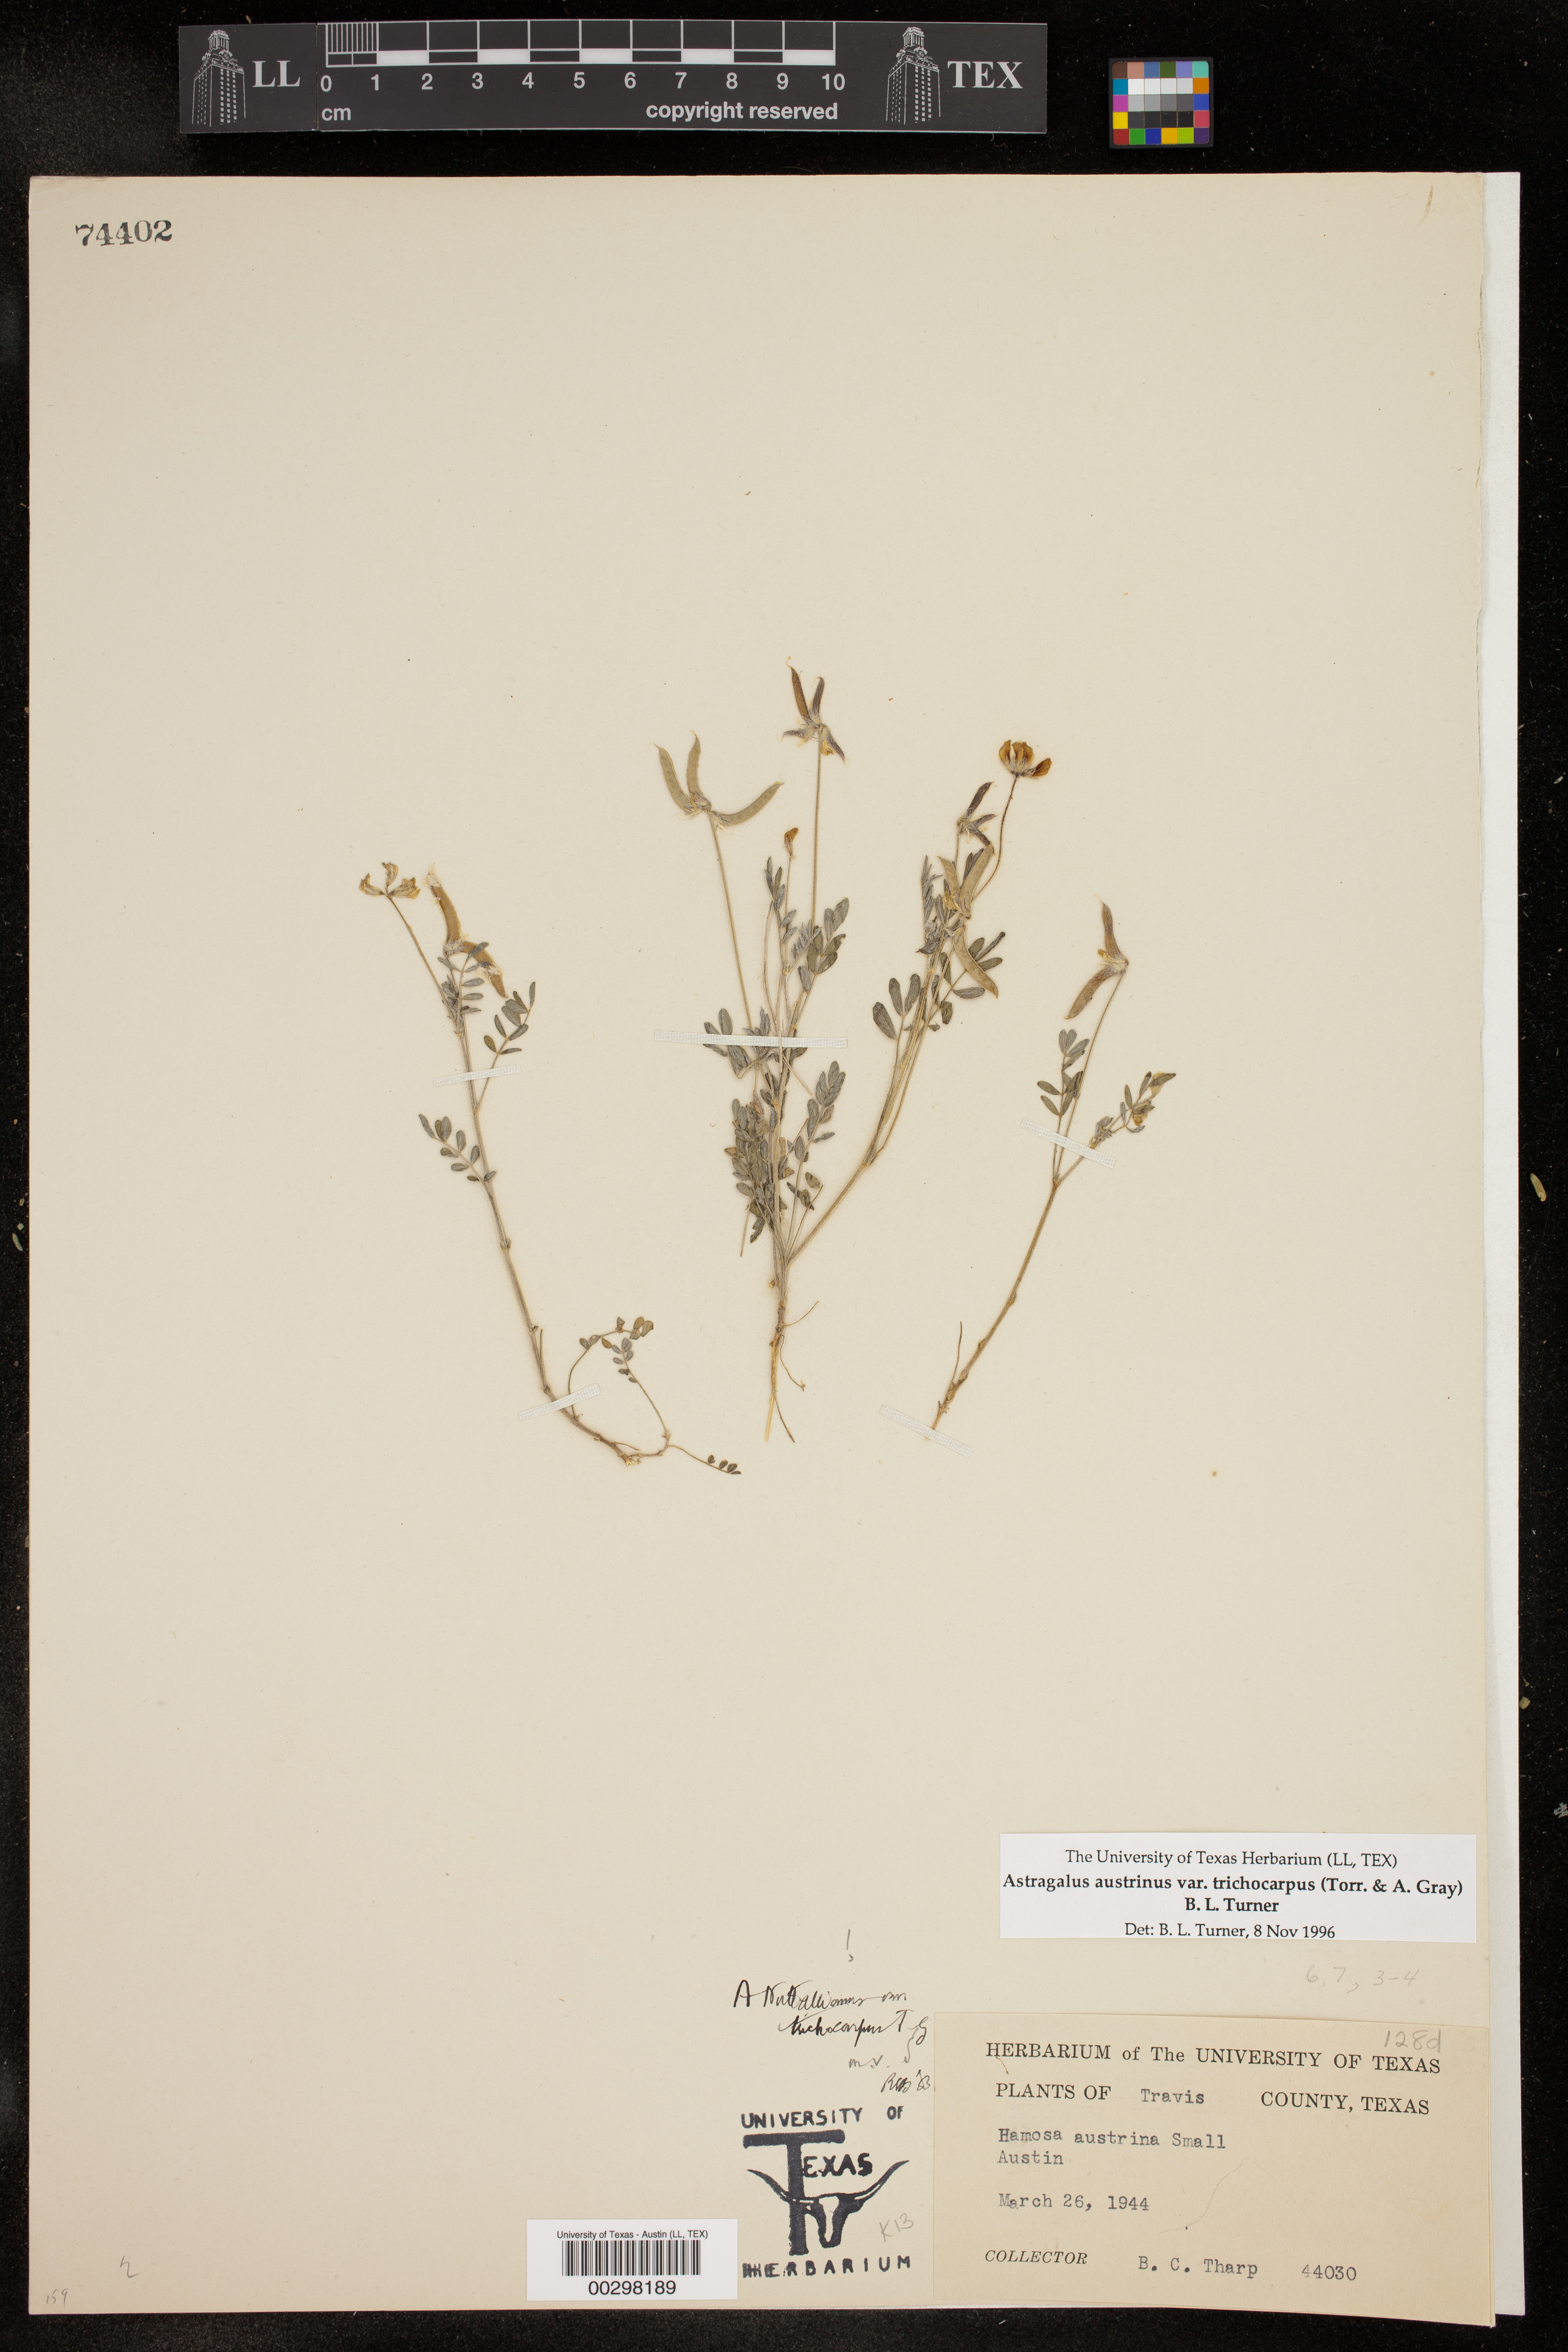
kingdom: Plantae
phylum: Tracheophyta
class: Magnoliopsida
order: Fabales
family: Fabaceae
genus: Astragalus
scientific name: Astragalus nuttallianus
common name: Smallflowered milkvetch
